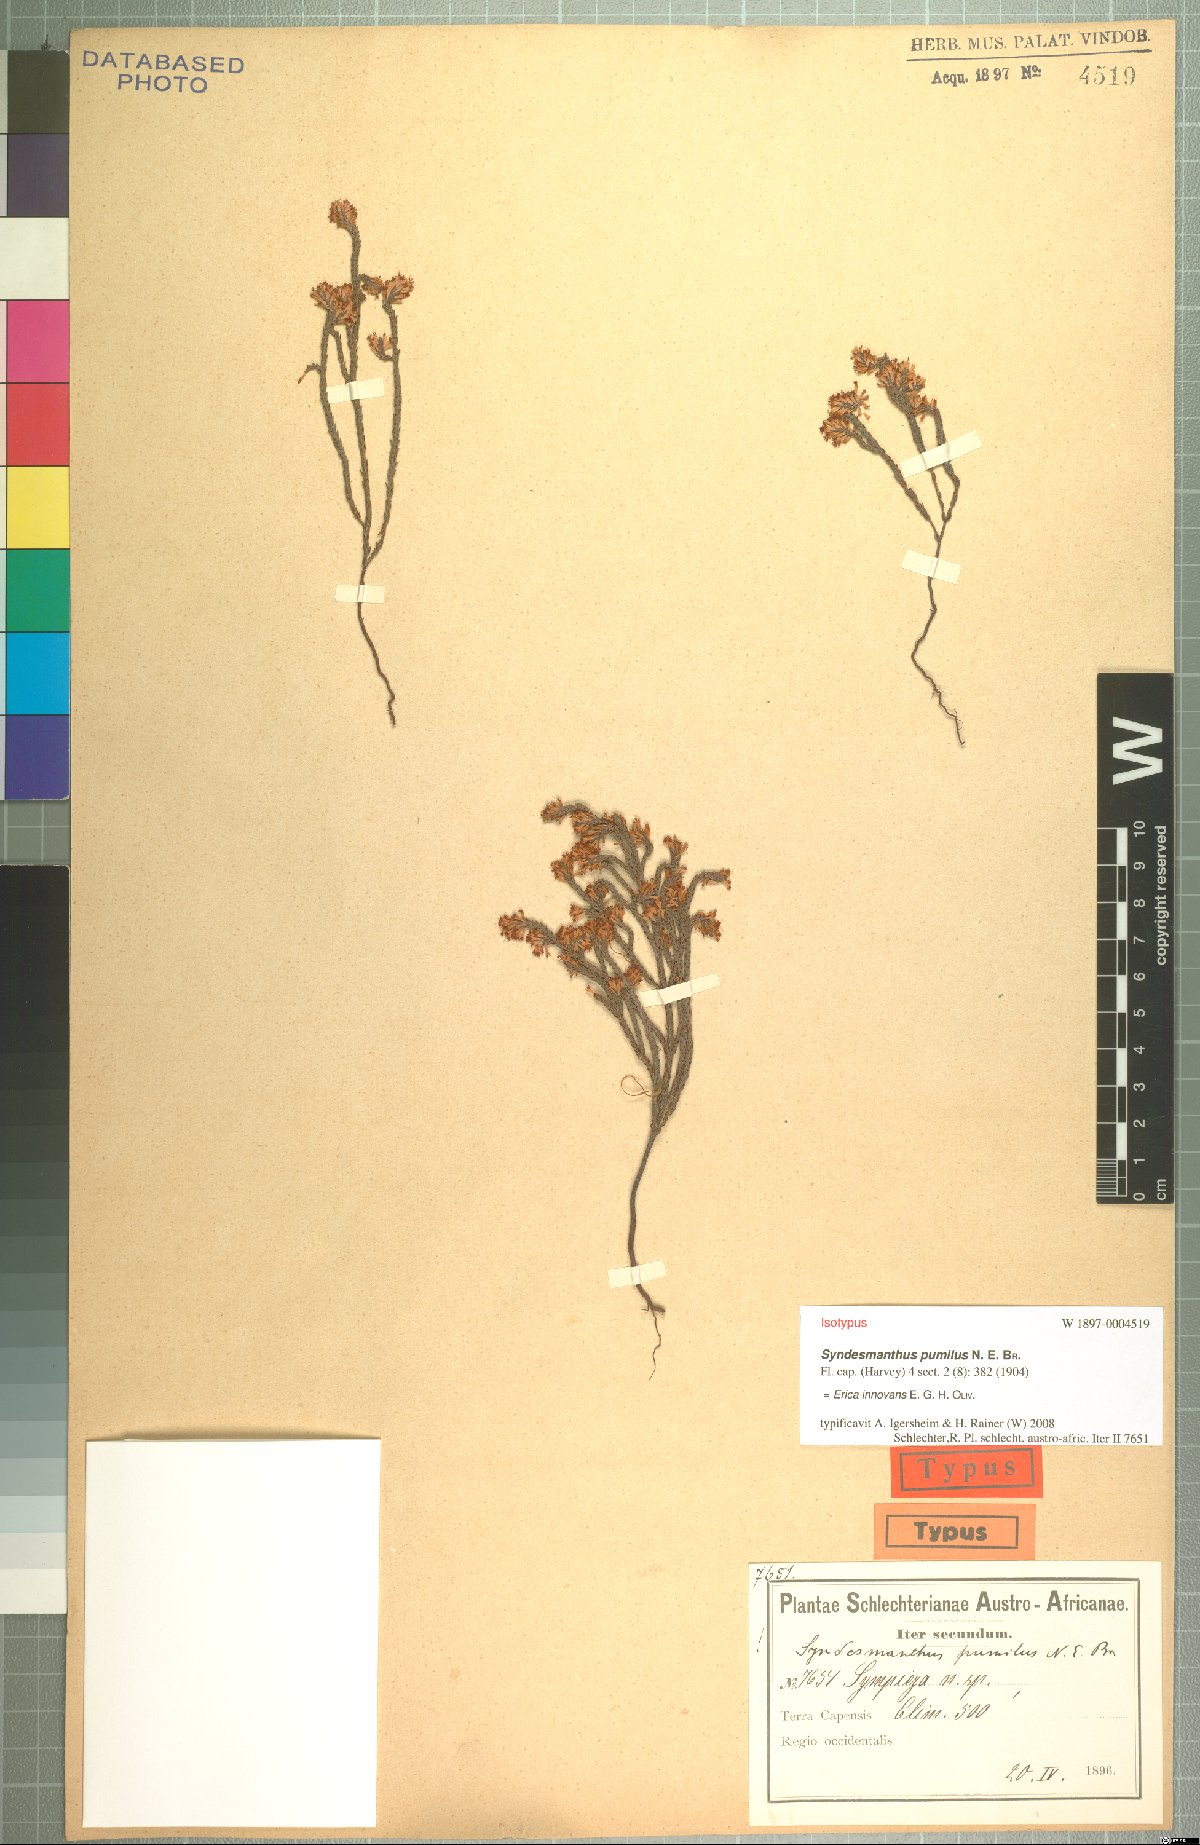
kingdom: Plantae
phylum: Tracheophyta
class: Magnoliopsida
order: Ericales
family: Ericaceae
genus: Erica
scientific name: Erica innovans
